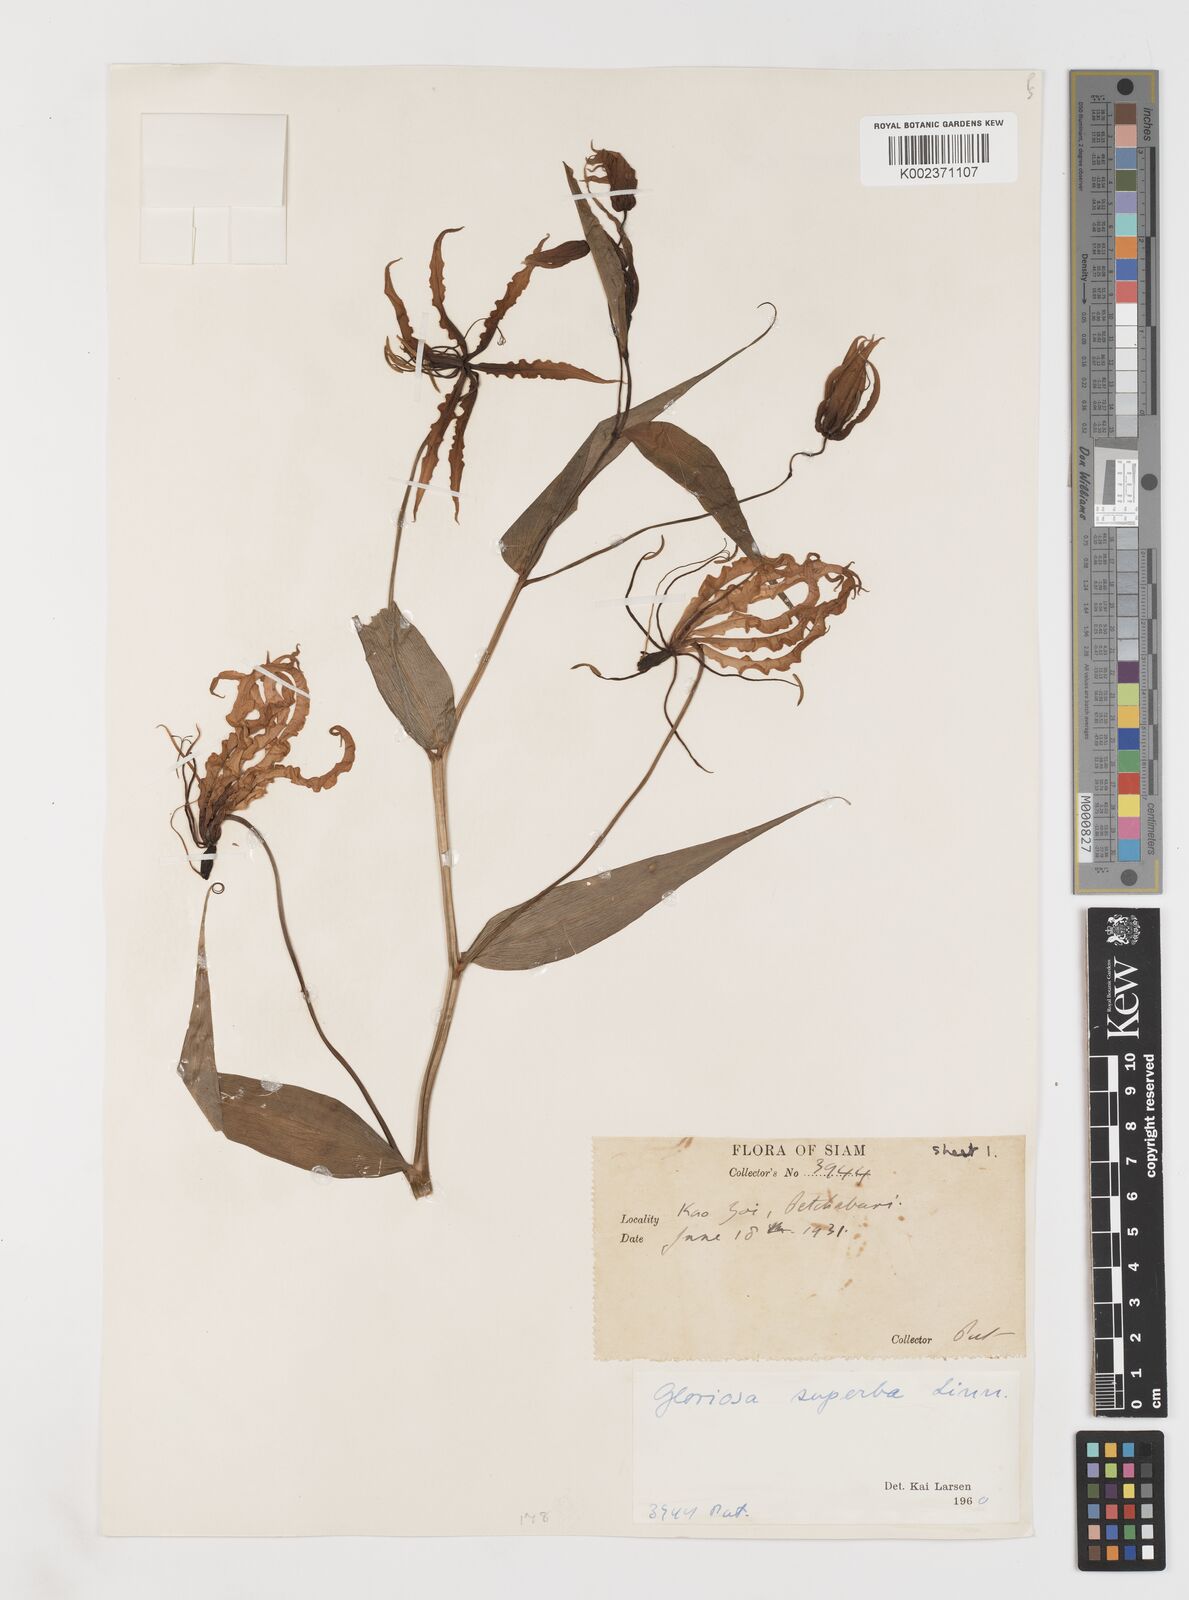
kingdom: Plantae
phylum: Tracheophyta
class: Liliopsida
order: Liliales
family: Colchicaceae
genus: Gloriosa
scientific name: Gloriosa superba
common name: Flame lily
